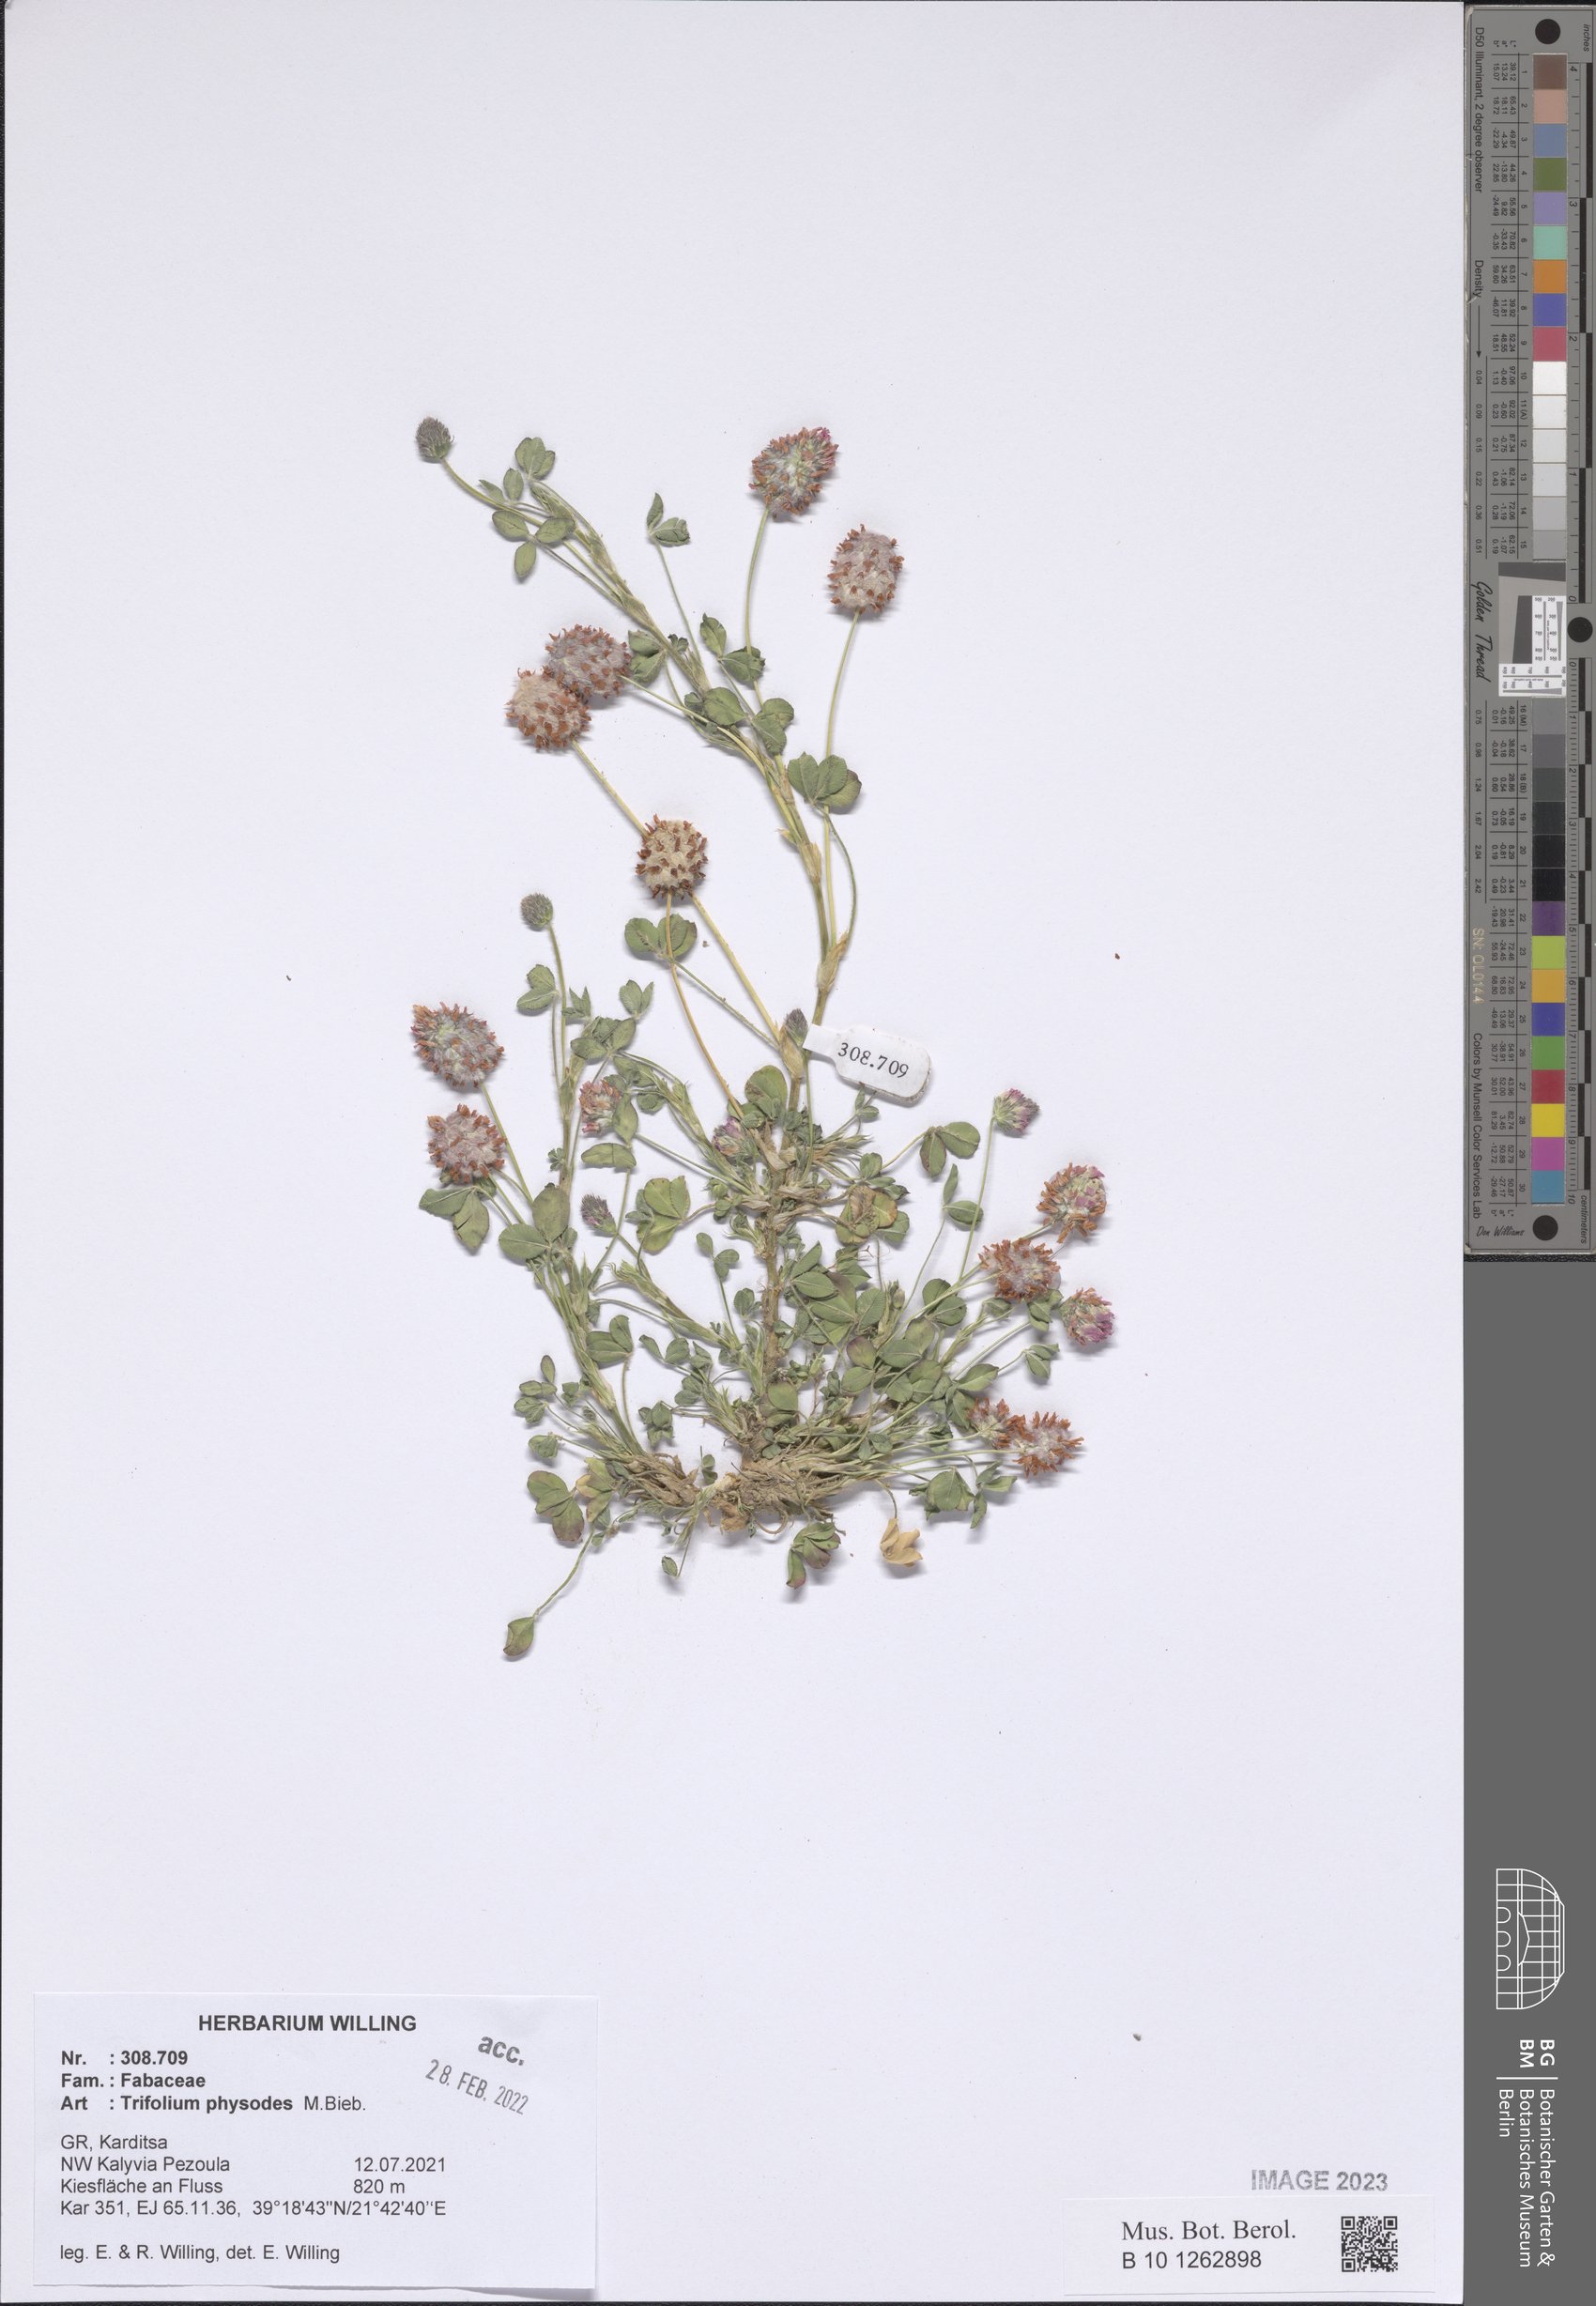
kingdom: Plantae
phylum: Tracheophyta
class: Magnoliopsida
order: Fabales
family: Fabaceae
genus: Trifolium
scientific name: Trifolium physodes
